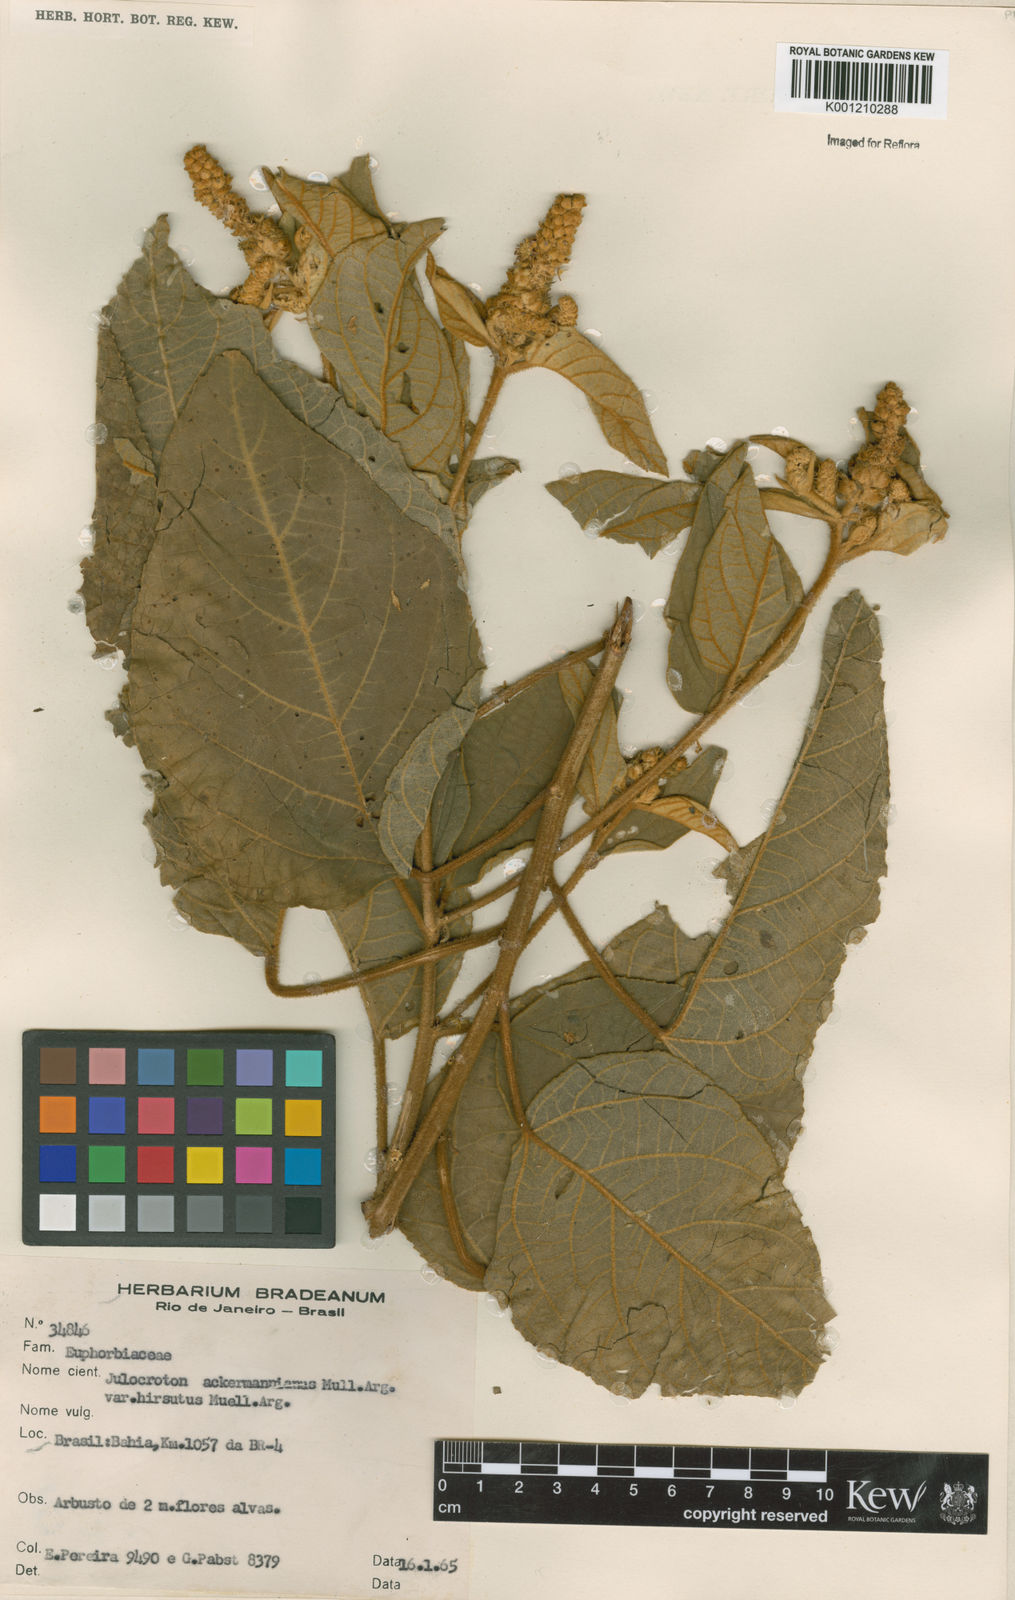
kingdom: Plantae
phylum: Tracheophyta
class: Magnoliopsida
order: Malpighiales
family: Euphorbiaceae
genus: Croton
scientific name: Croton
